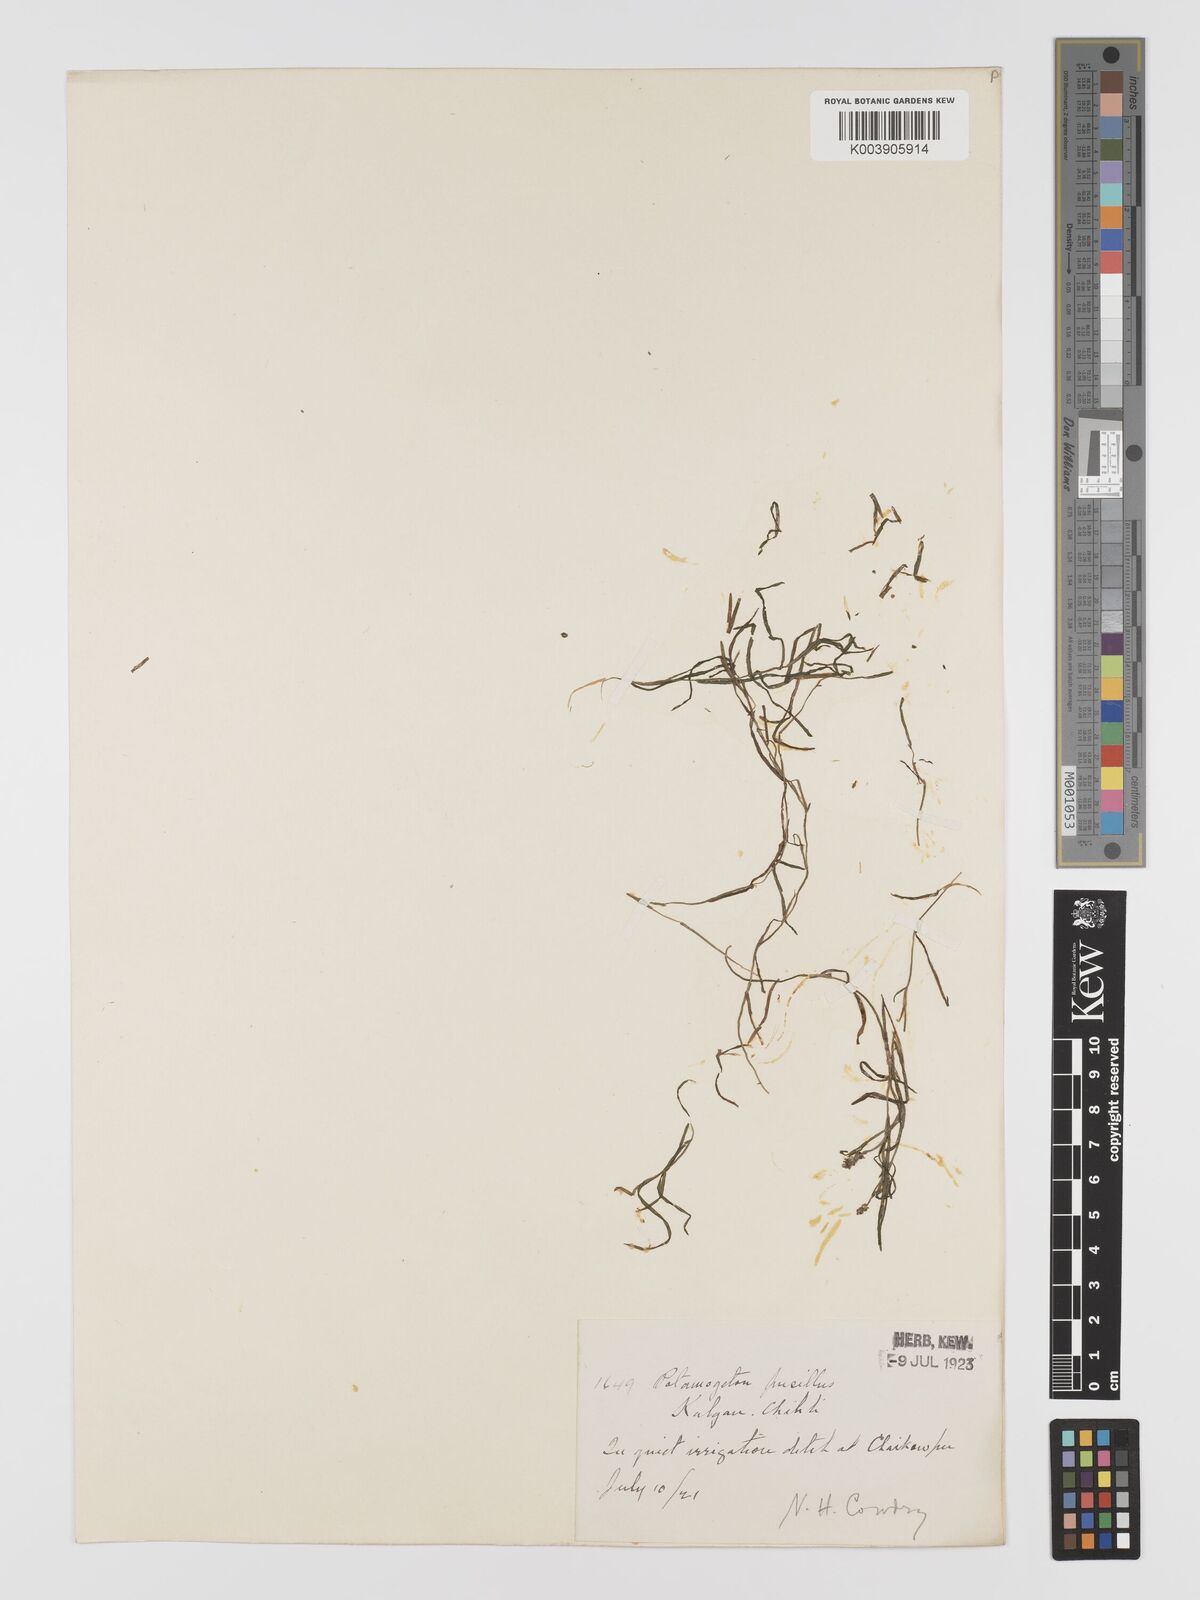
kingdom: Plantae
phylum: Tracheophyta
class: Liliopsida
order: Alismatales
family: Potamogetonaceae
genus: Potamogeton
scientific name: Potamogeton pusillus
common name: Lesser pondweed
